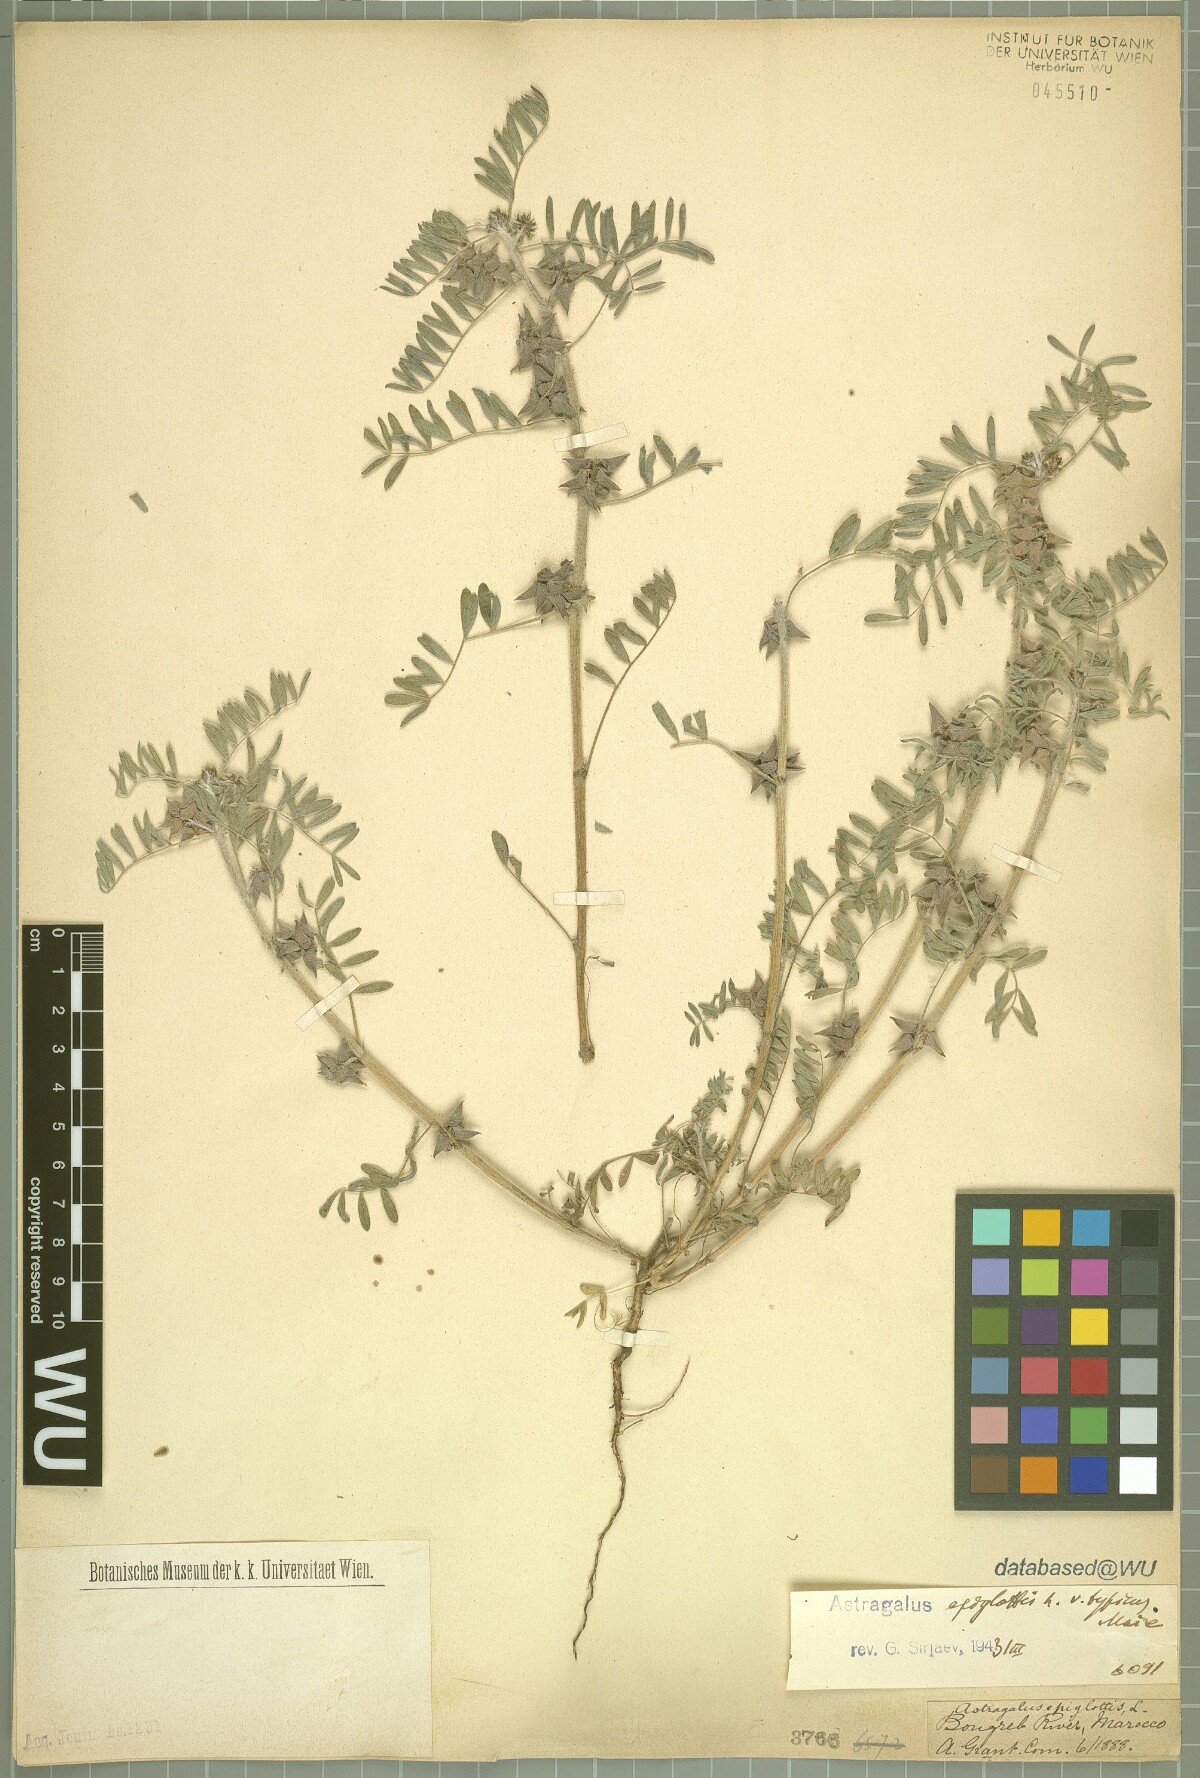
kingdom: Plantae
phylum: Tracheophyta
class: Magnoliopsida
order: Fabales
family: Fabaceae
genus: Biserrula
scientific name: Biserrula epiglottis
